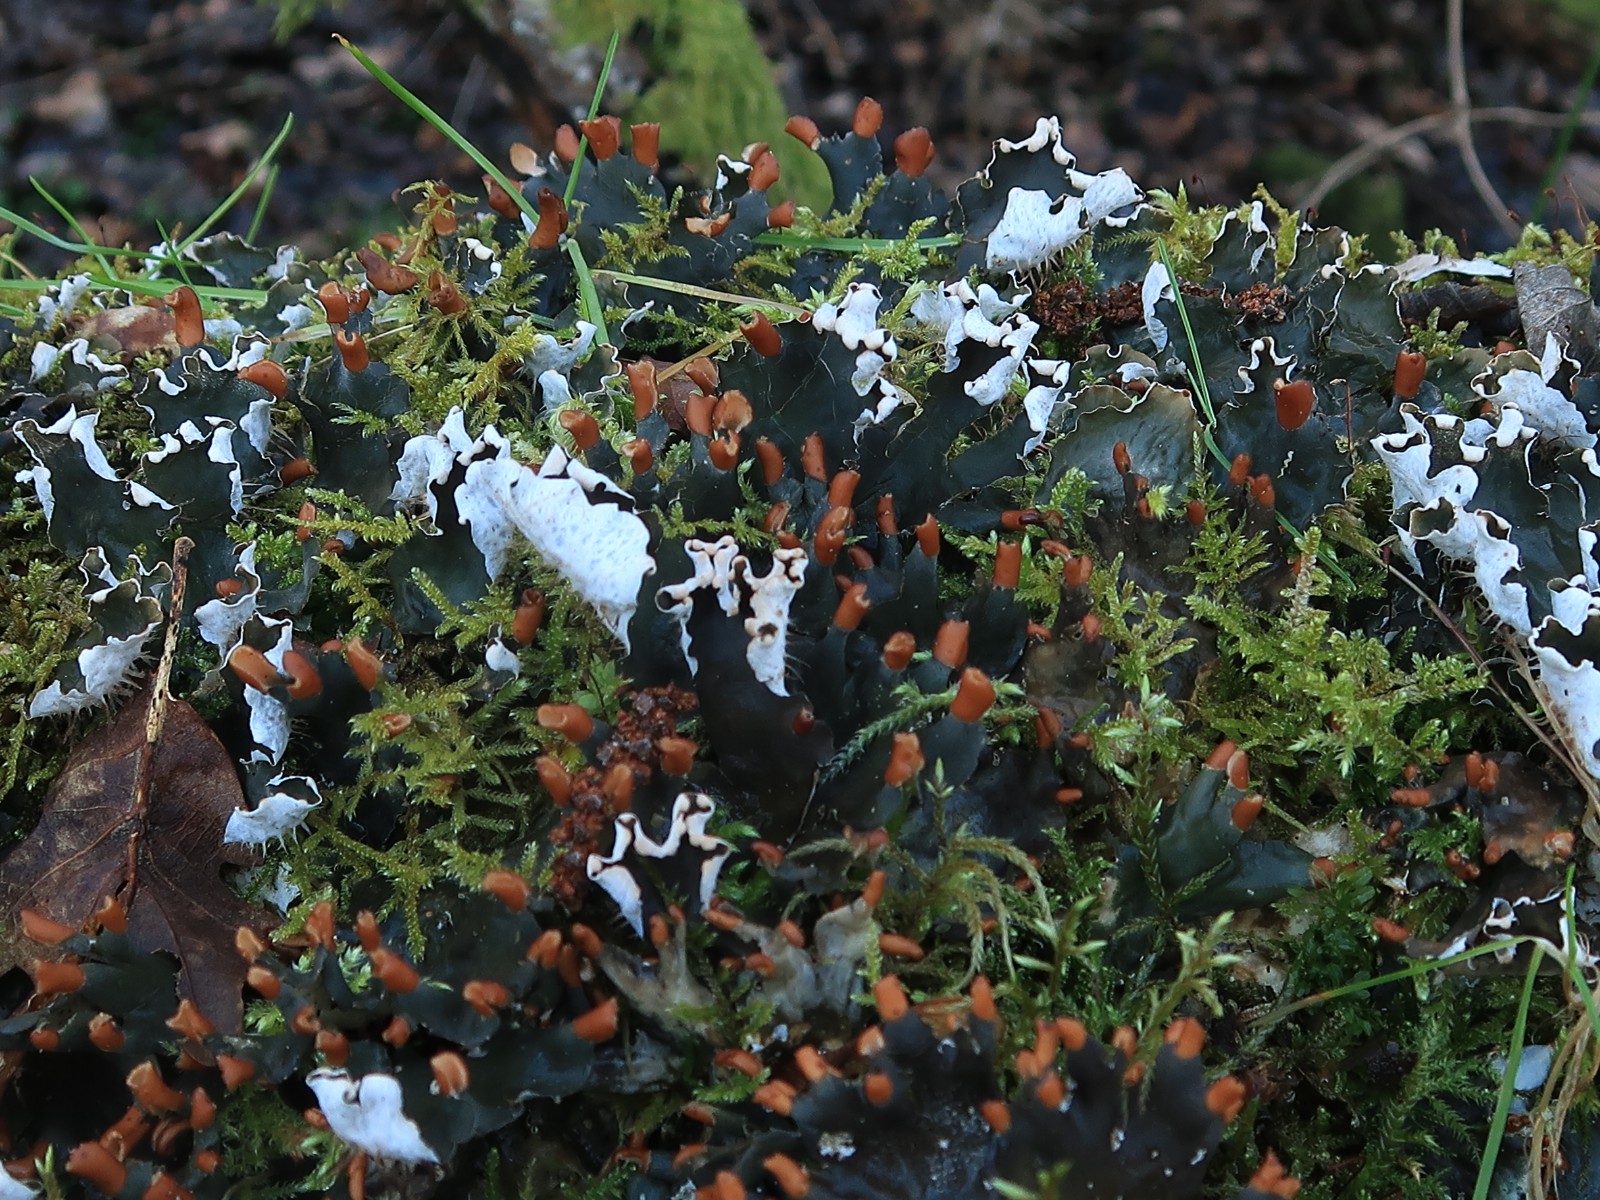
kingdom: Fungi
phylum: Ascomycota
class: Lecanoromycetes
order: Peltigerales
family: Peltigeraceae
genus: Peltigera
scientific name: Peltigera hymenina
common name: hinde-skjoldlav
